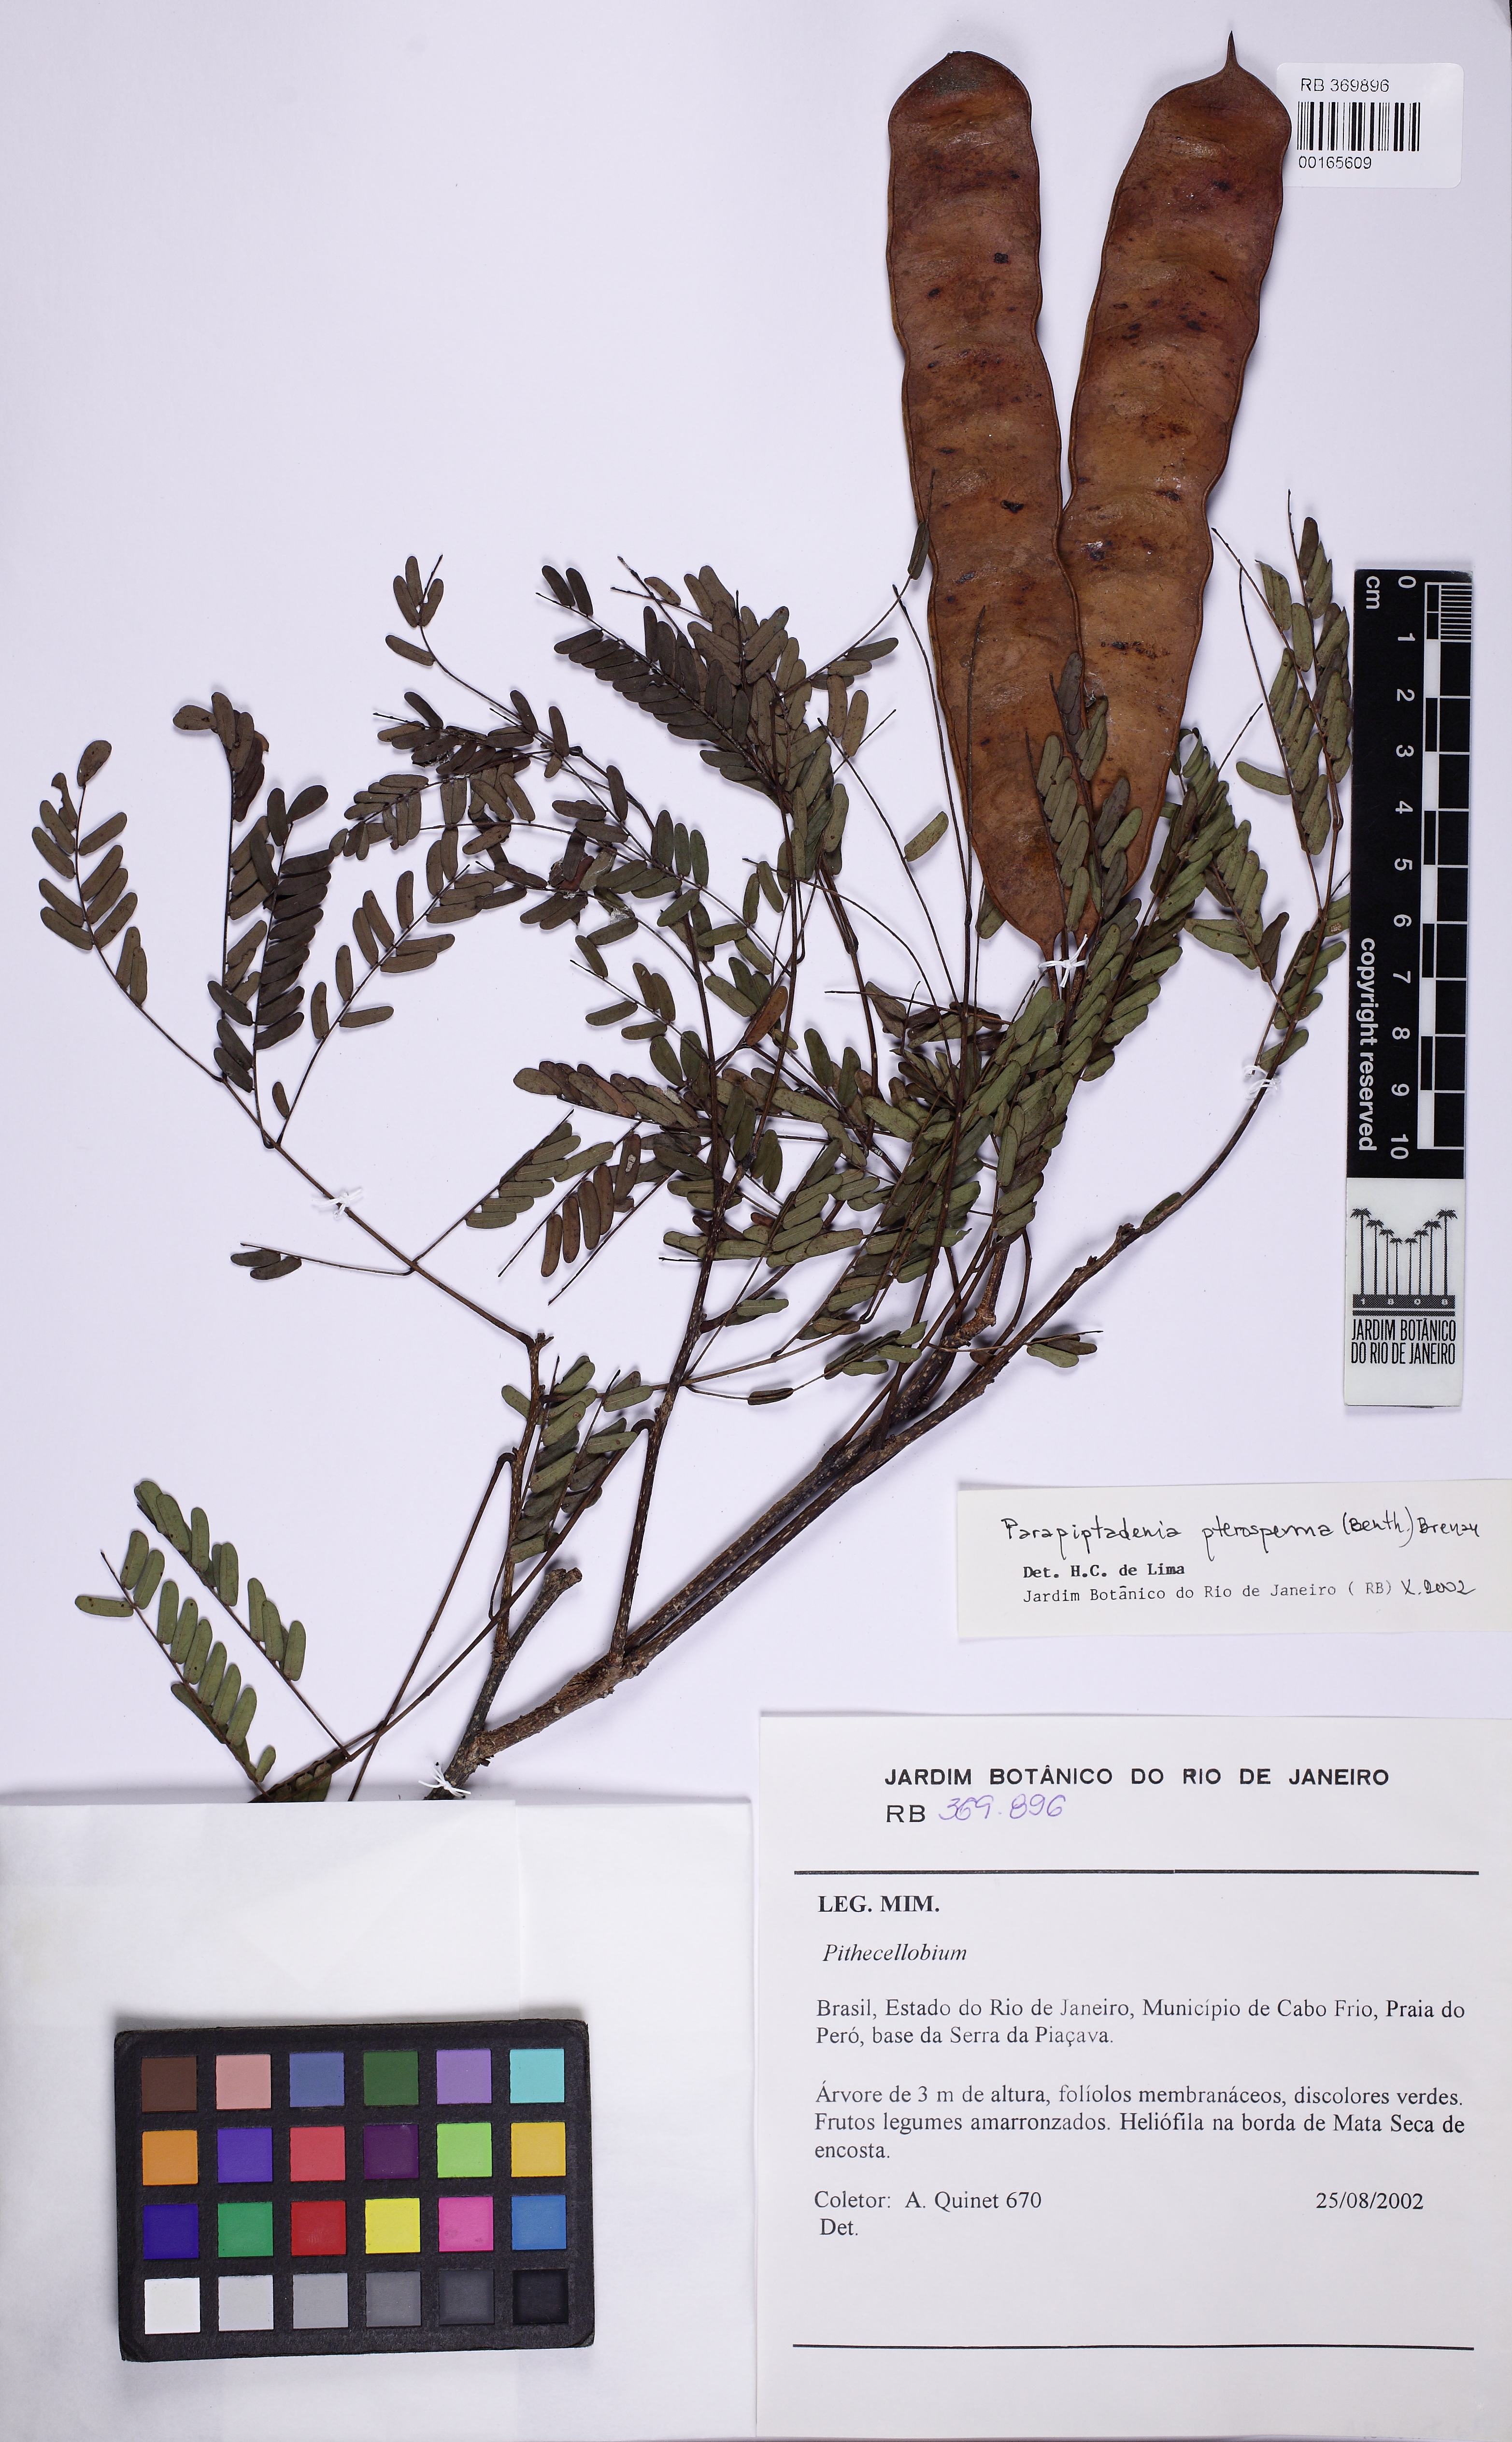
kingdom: Plantae
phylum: Tracheophyta
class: Magnoliopsida
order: Fabales
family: Fabaceae
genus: Parapiptadenia
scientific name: Parapiptadenia pterosperma
